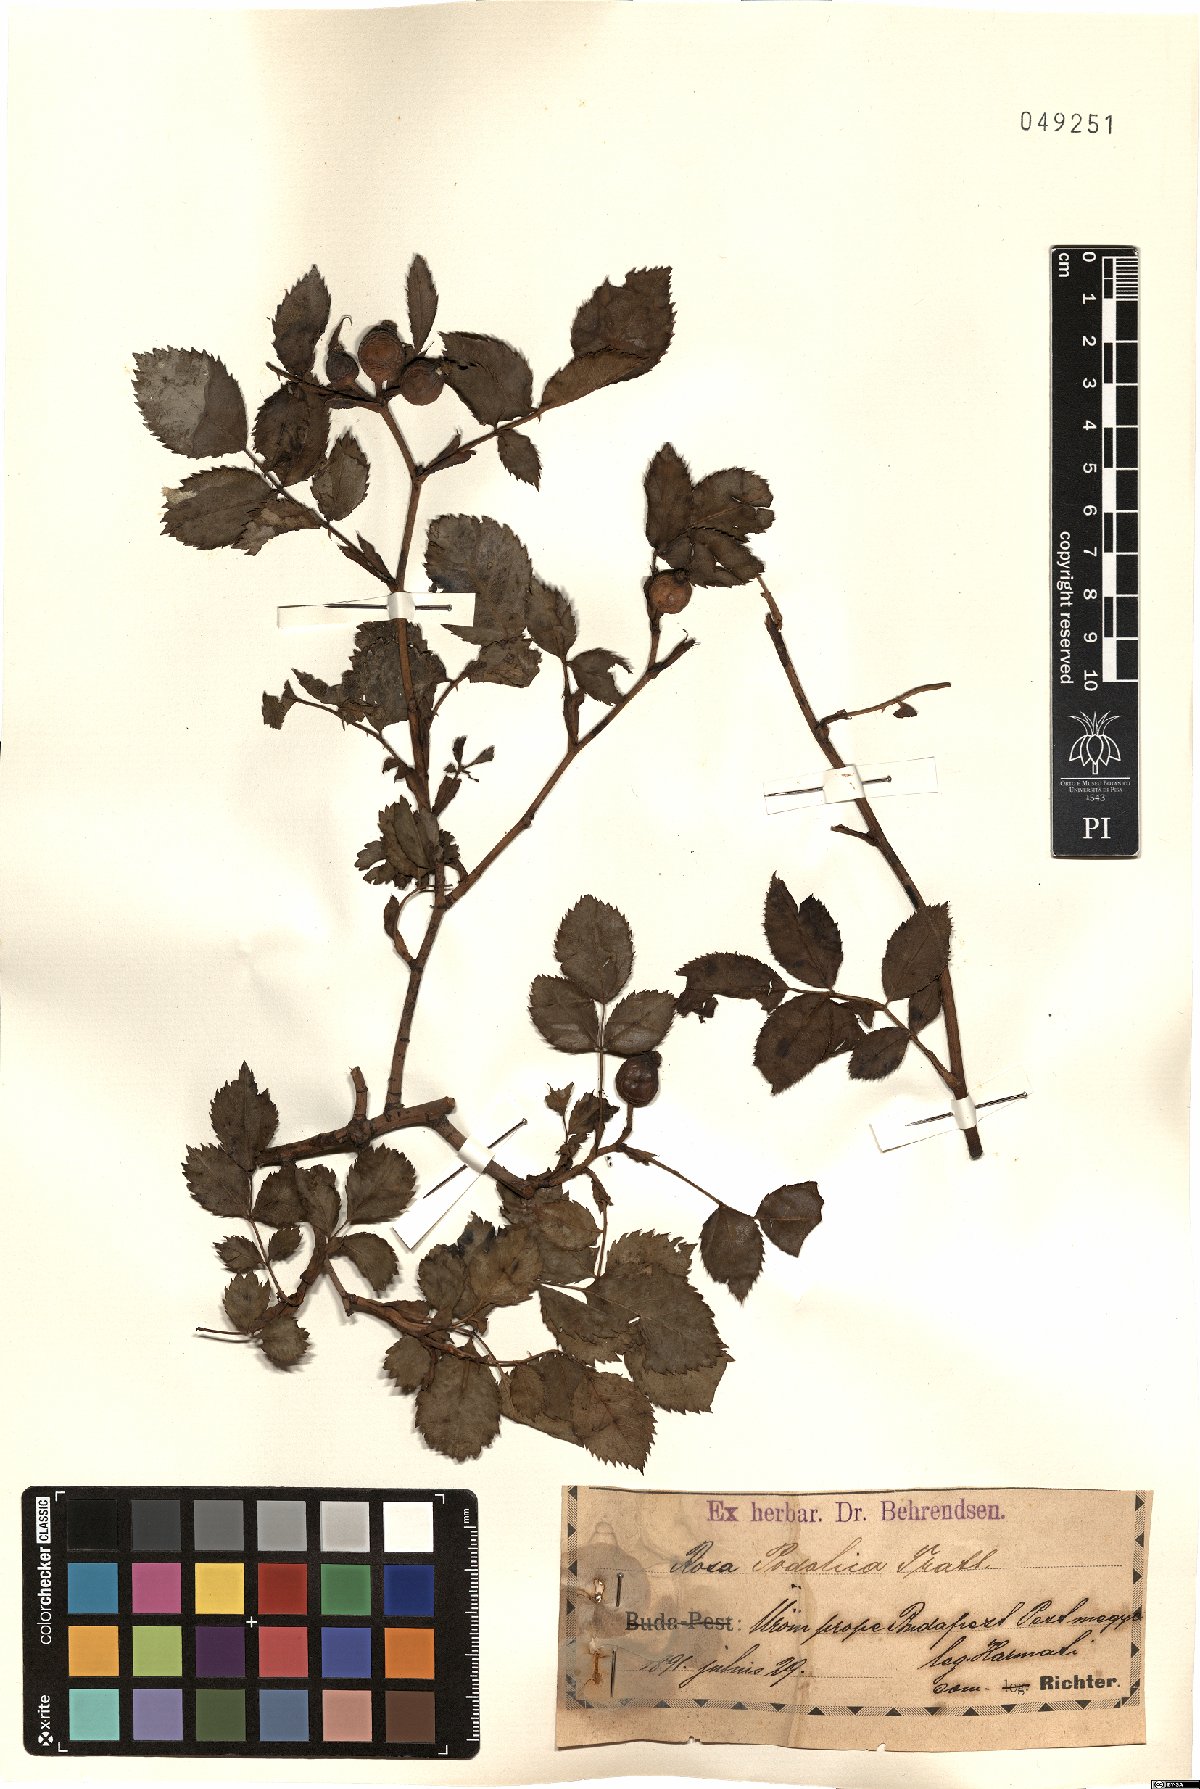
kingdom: Plantae
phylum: Tracheophyta
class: Magnoliopsida
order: Rosales
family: Rosaceae
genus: Rosa
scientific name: Rosa canina
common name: Dog rose
